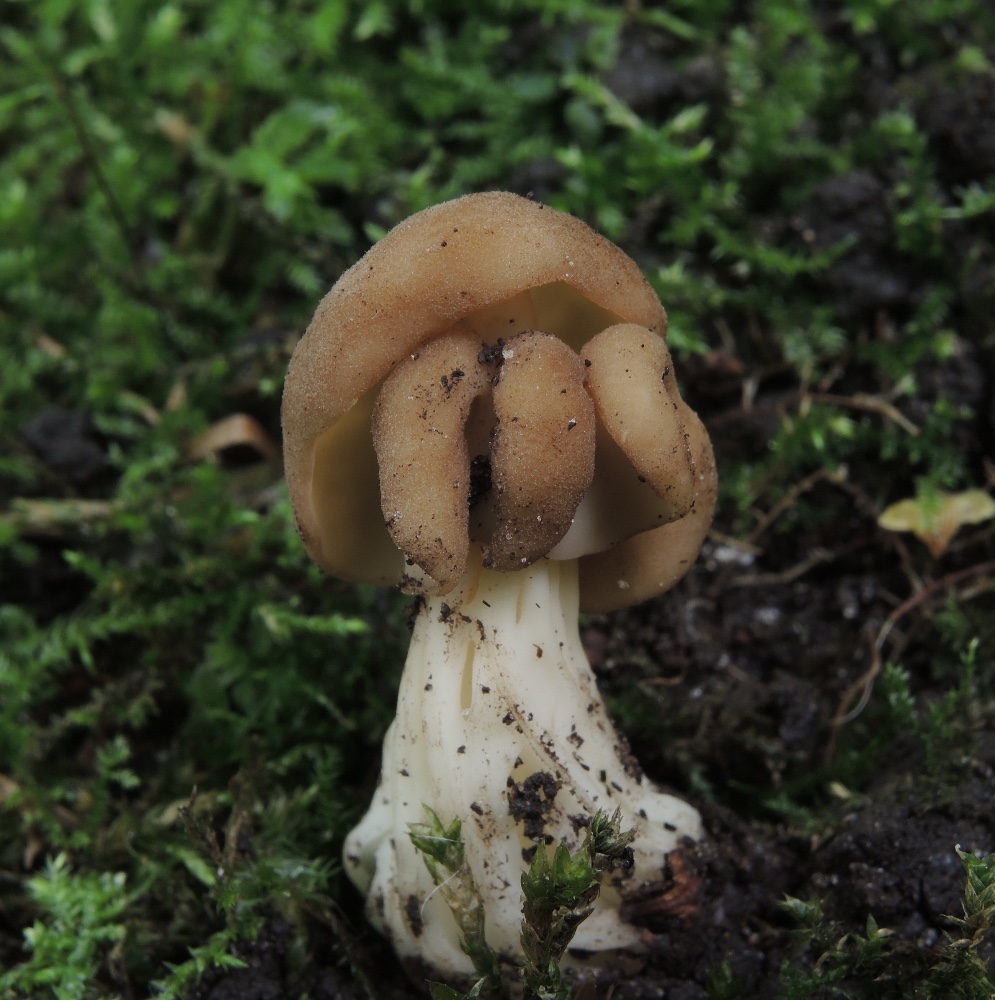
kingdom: Fungi
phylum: Ascomycota
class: Pezizomycetes
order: Pezizales
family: Helvellaceae
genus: Helvella
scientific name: Helvella crispa
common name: kruset foldhat
